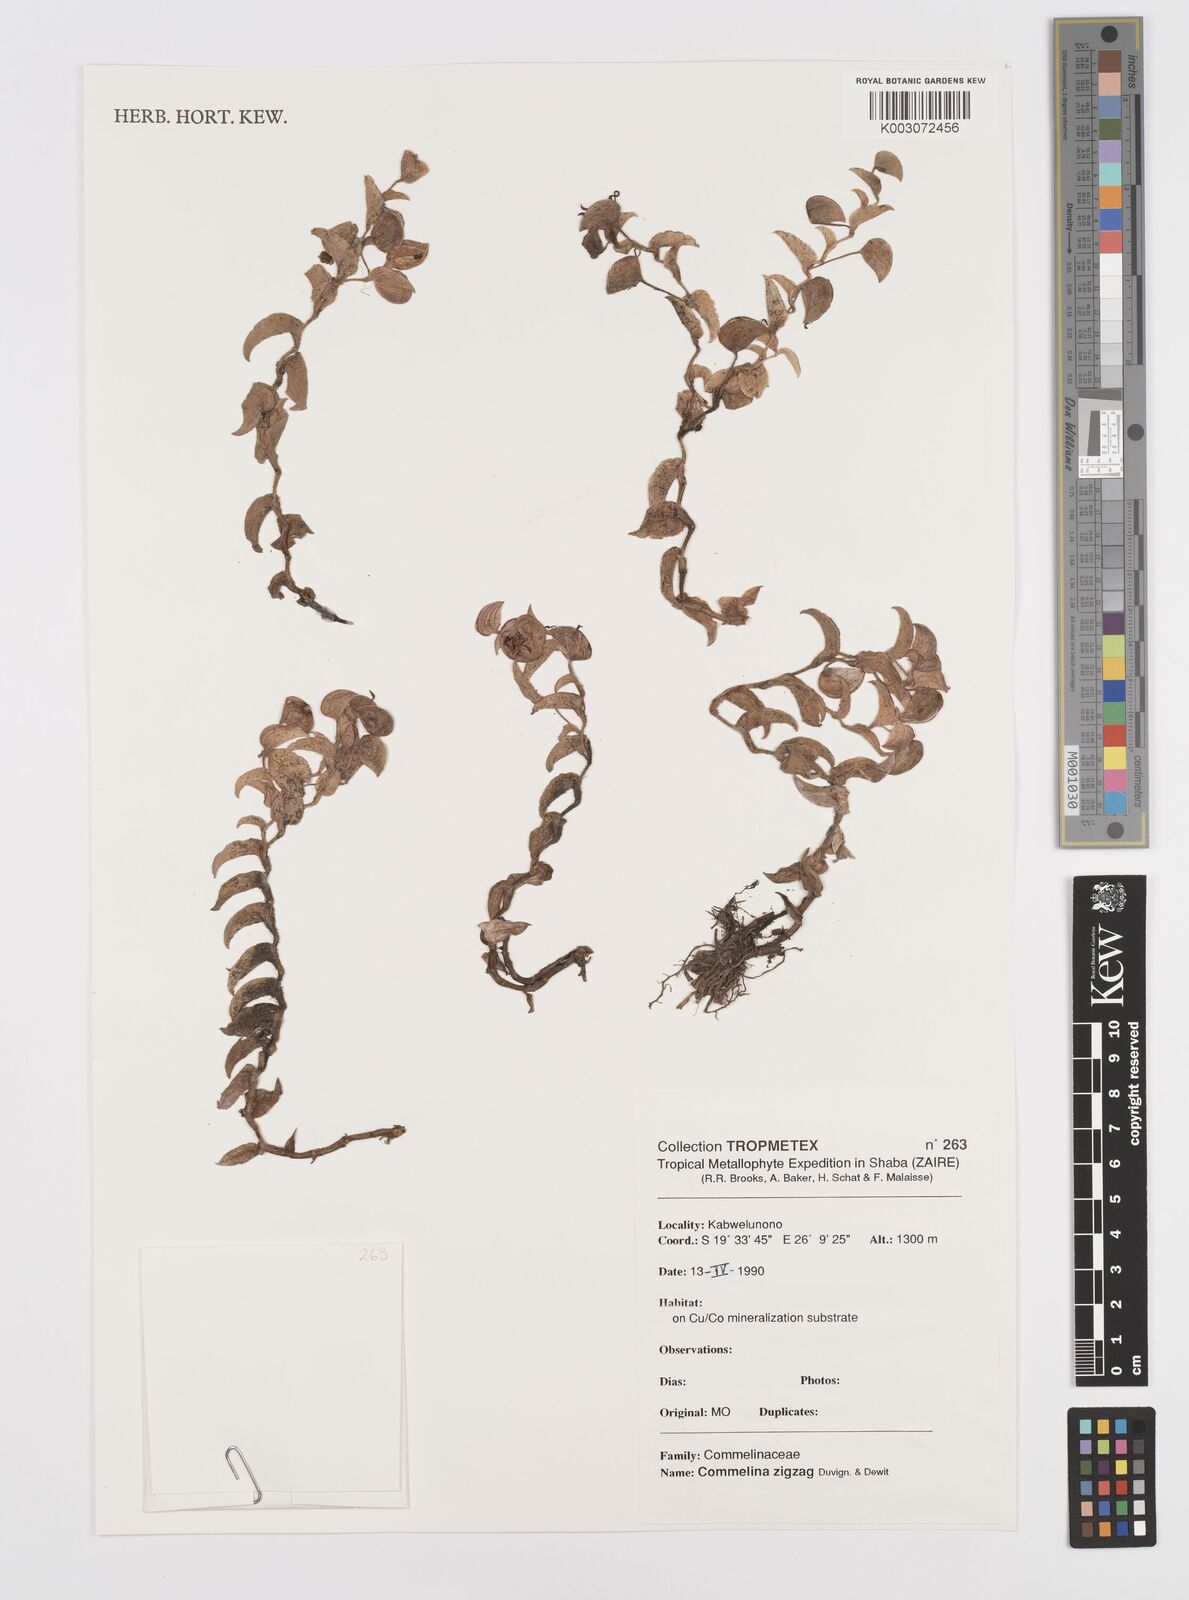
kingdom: Plantae
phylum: Tracheophyta
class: Liliopsida
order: Commelinales
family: Commelinaceae
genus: Commelina
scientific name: Commelina zigzag
